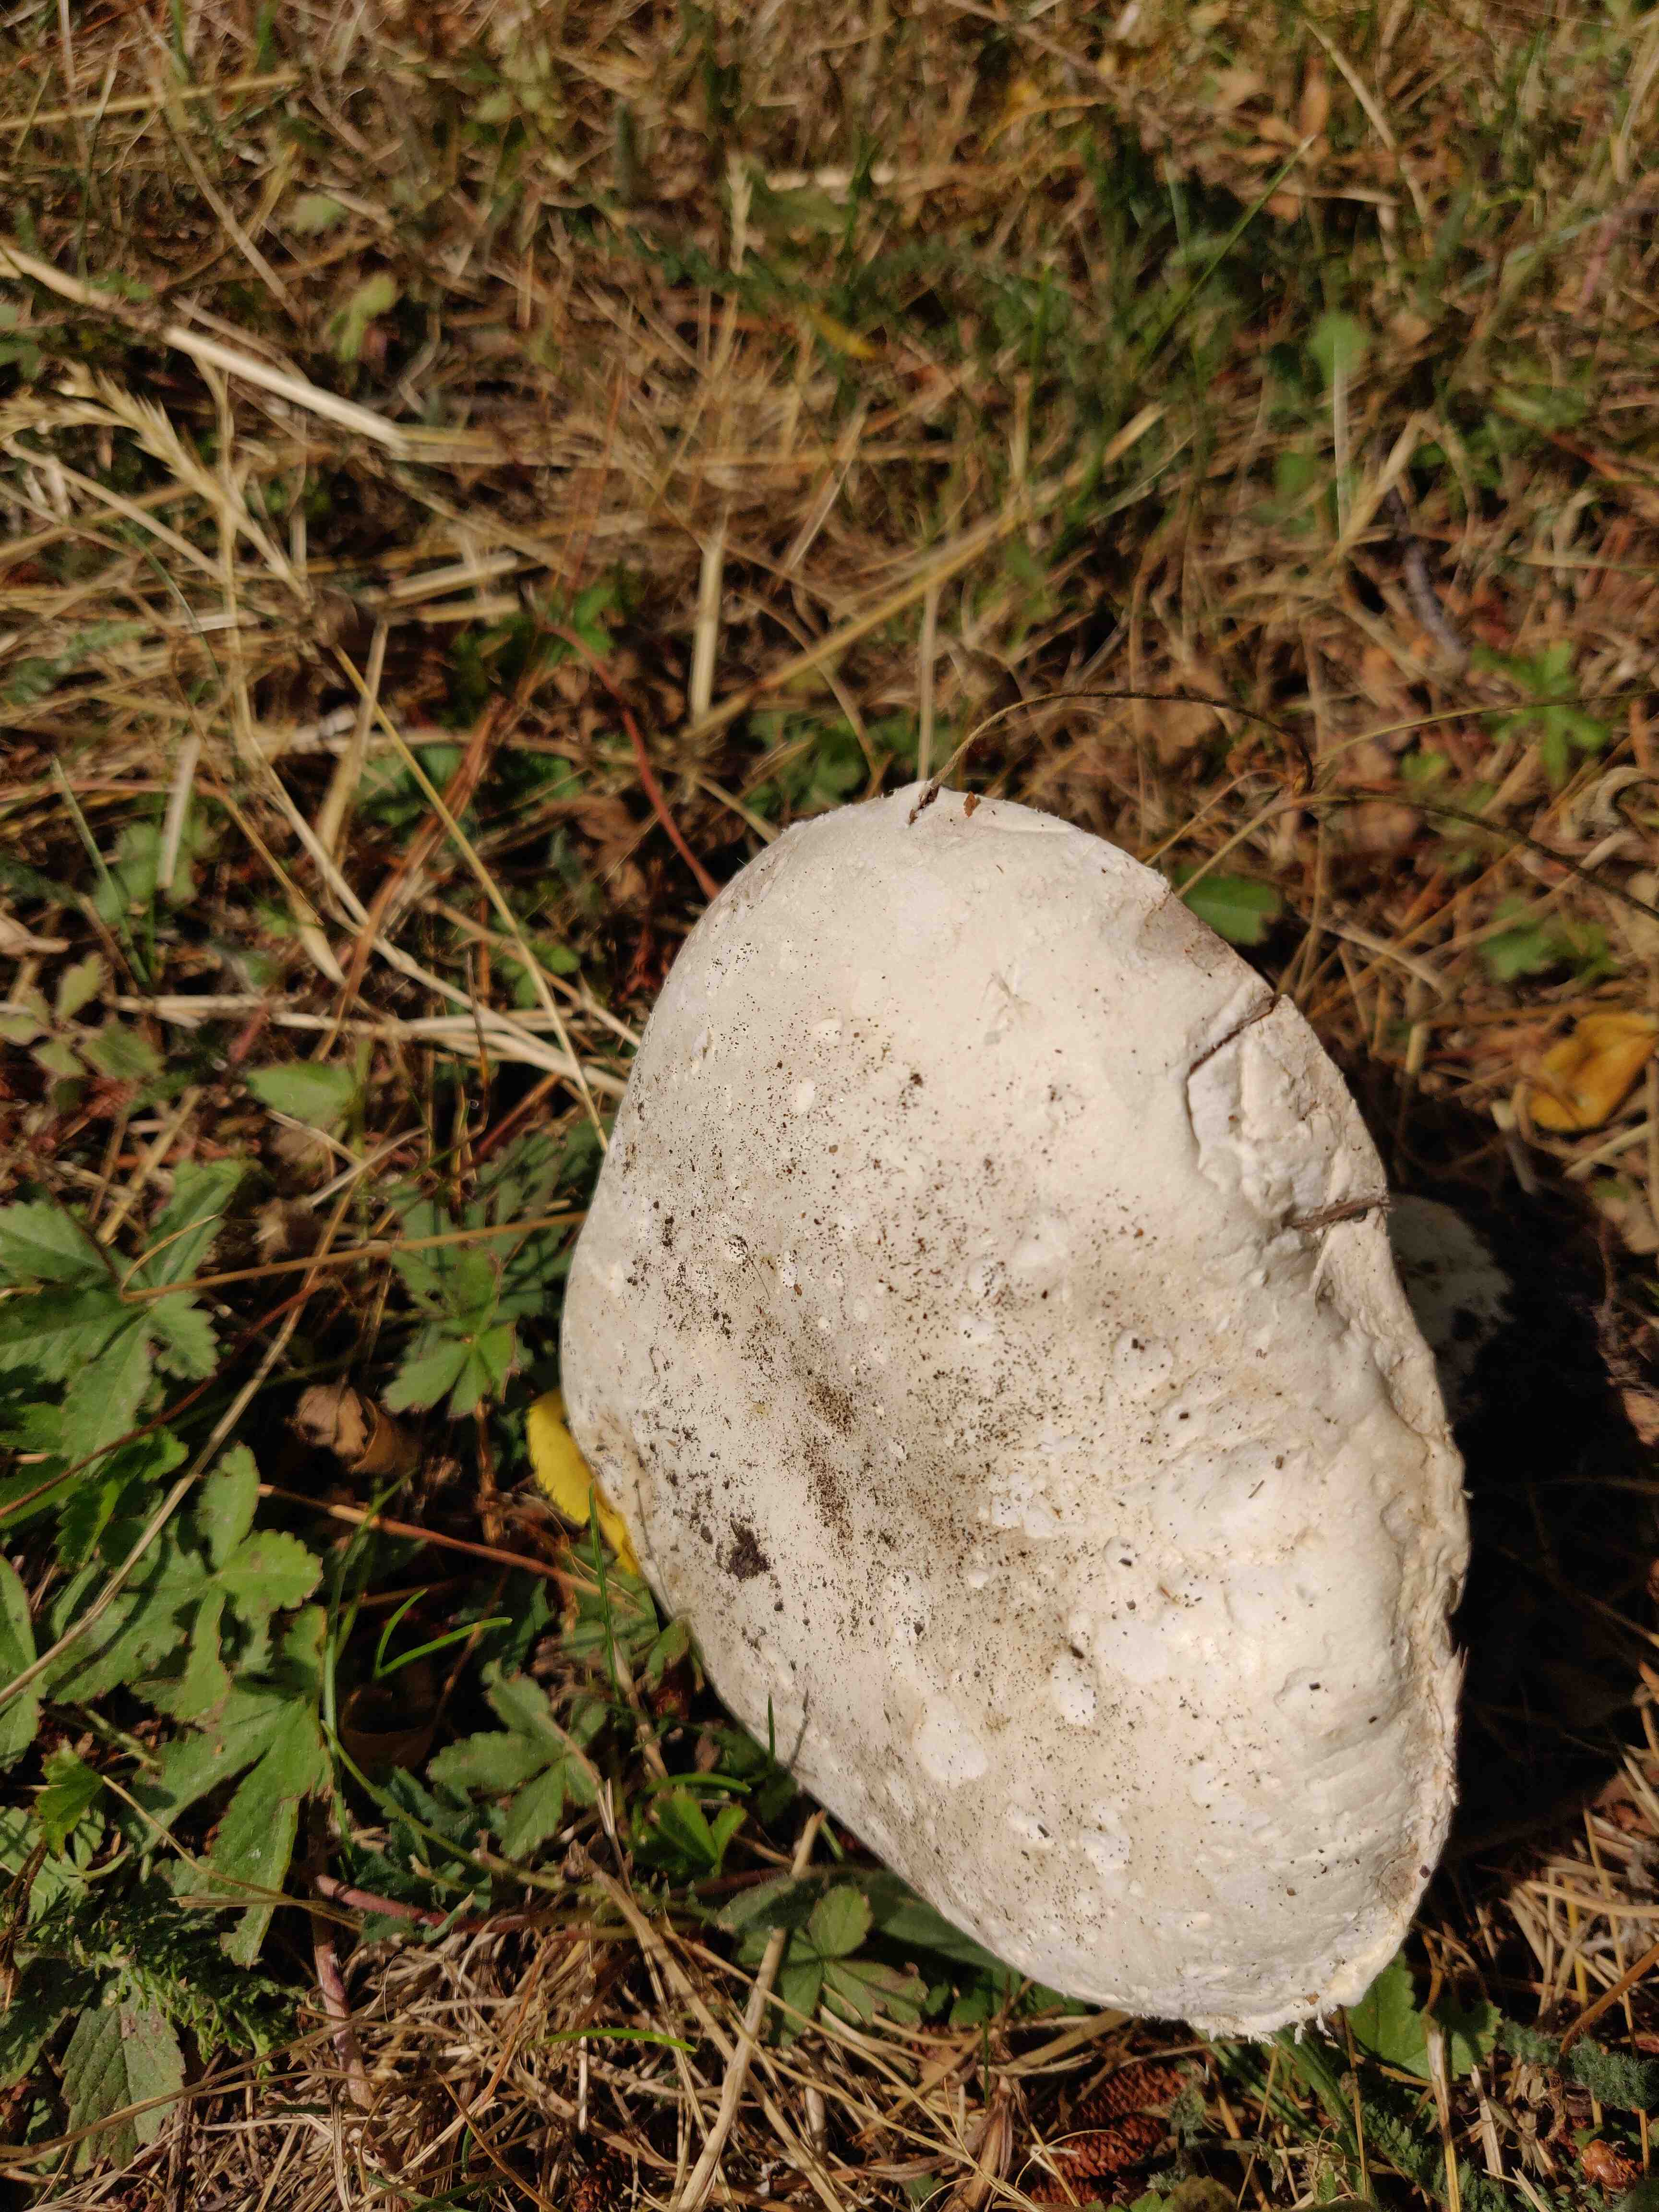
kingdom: Fungi
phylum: Basidiomycota
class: Agaricomycetes
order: Agaricales
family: Agaricaceae
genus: Agaricus
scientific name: Agaricus
